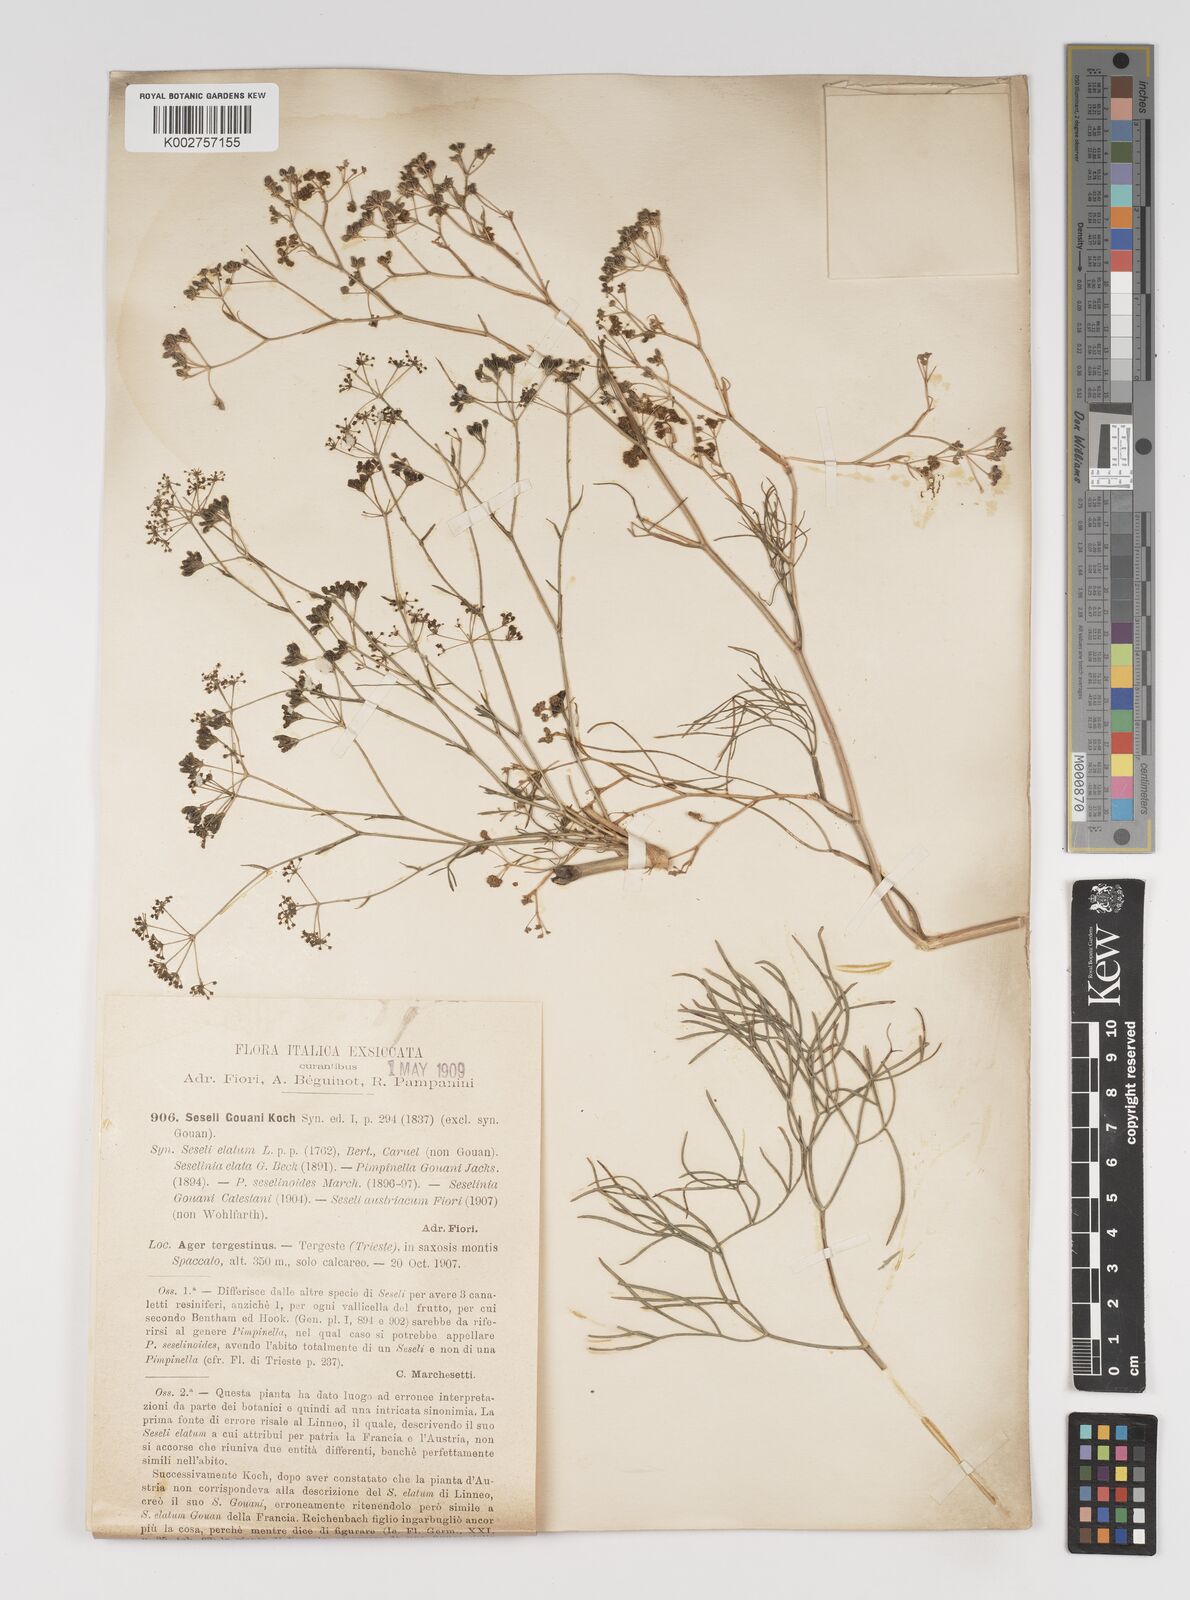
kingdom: Plantae
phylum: Tracheophyta
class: Magnoliopsida
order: Apiales
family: Apiaceae
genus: Seseli
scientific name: Seseli longifolium
